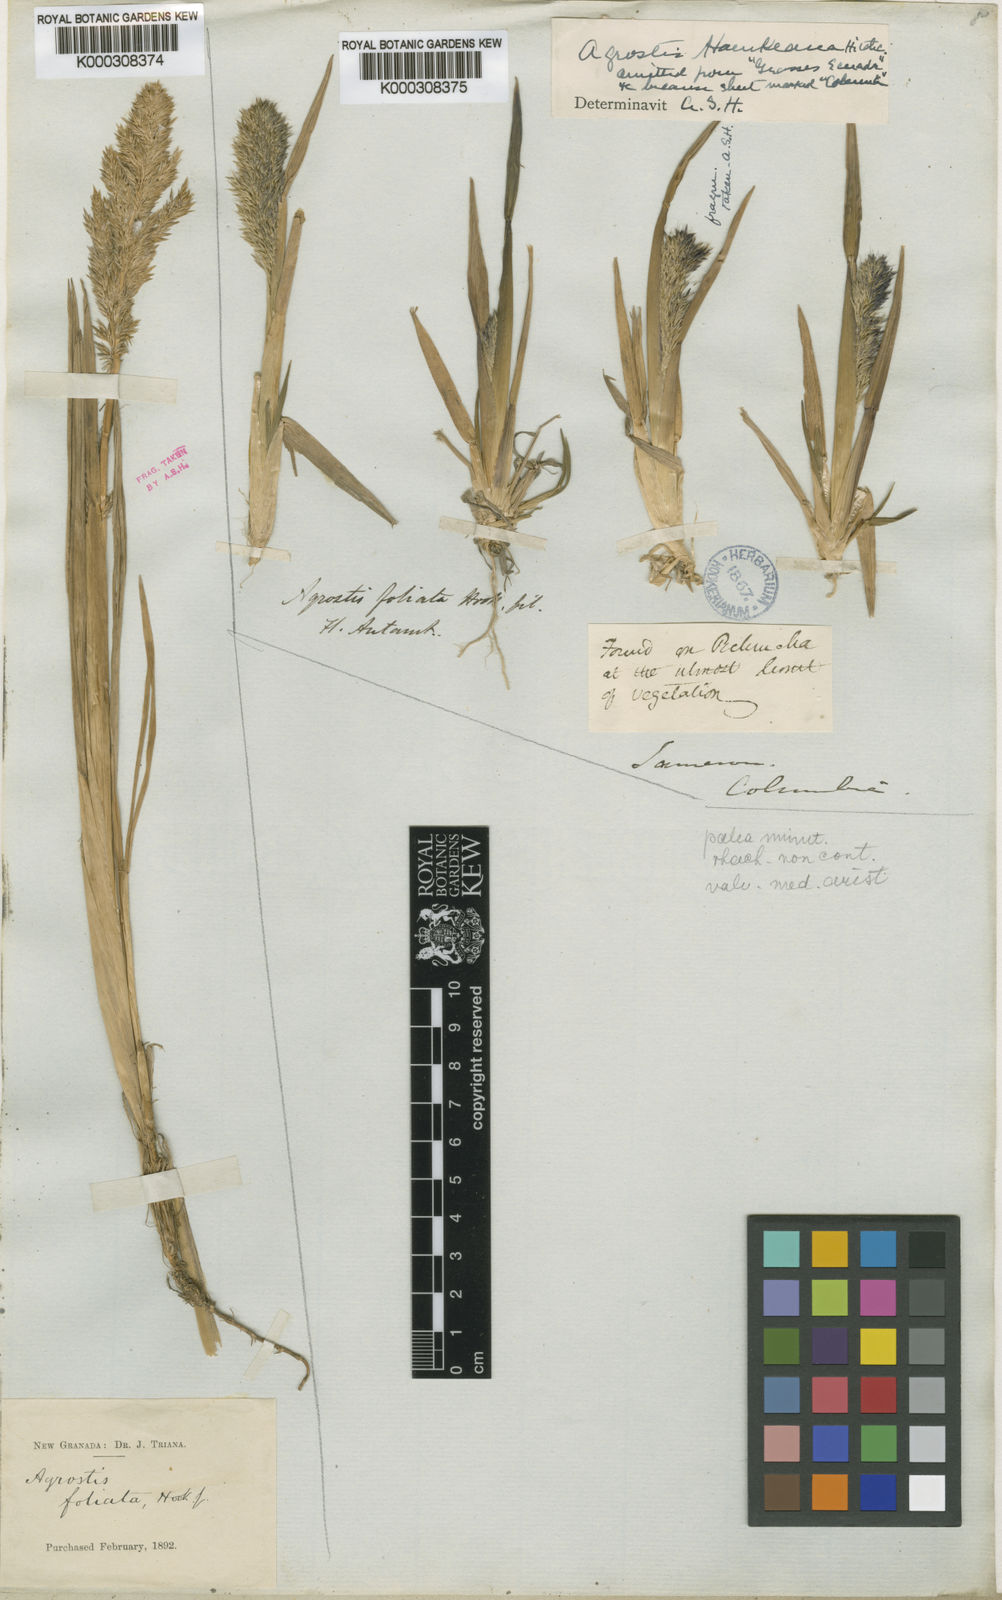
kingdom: Plantae
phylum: Tracheophyta
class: Liliopsida
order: Poales
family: Poaceae
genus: Agrostis
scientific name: Agrostis foliata
